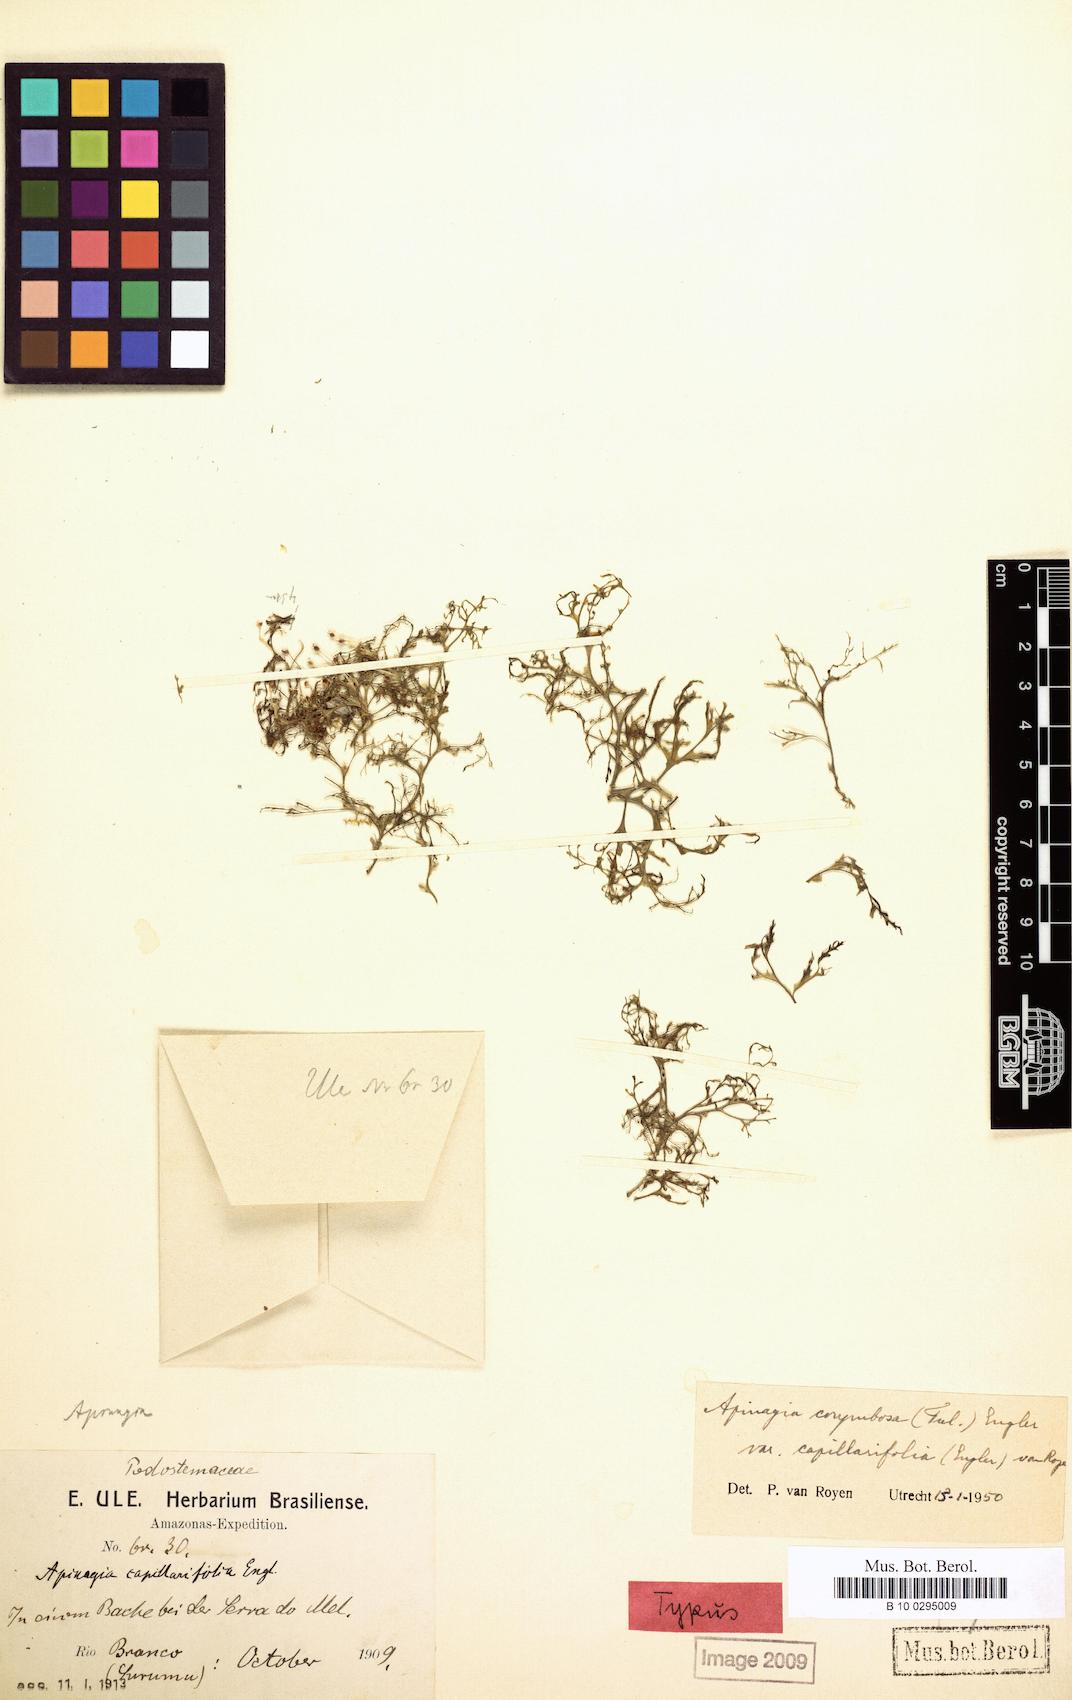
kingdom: Plantae
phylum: Tracheophyta
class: Magnoliopsida
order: Malpighiales
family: Podostemaceae
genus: Apinagia
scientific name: Apinagia corymbosa
